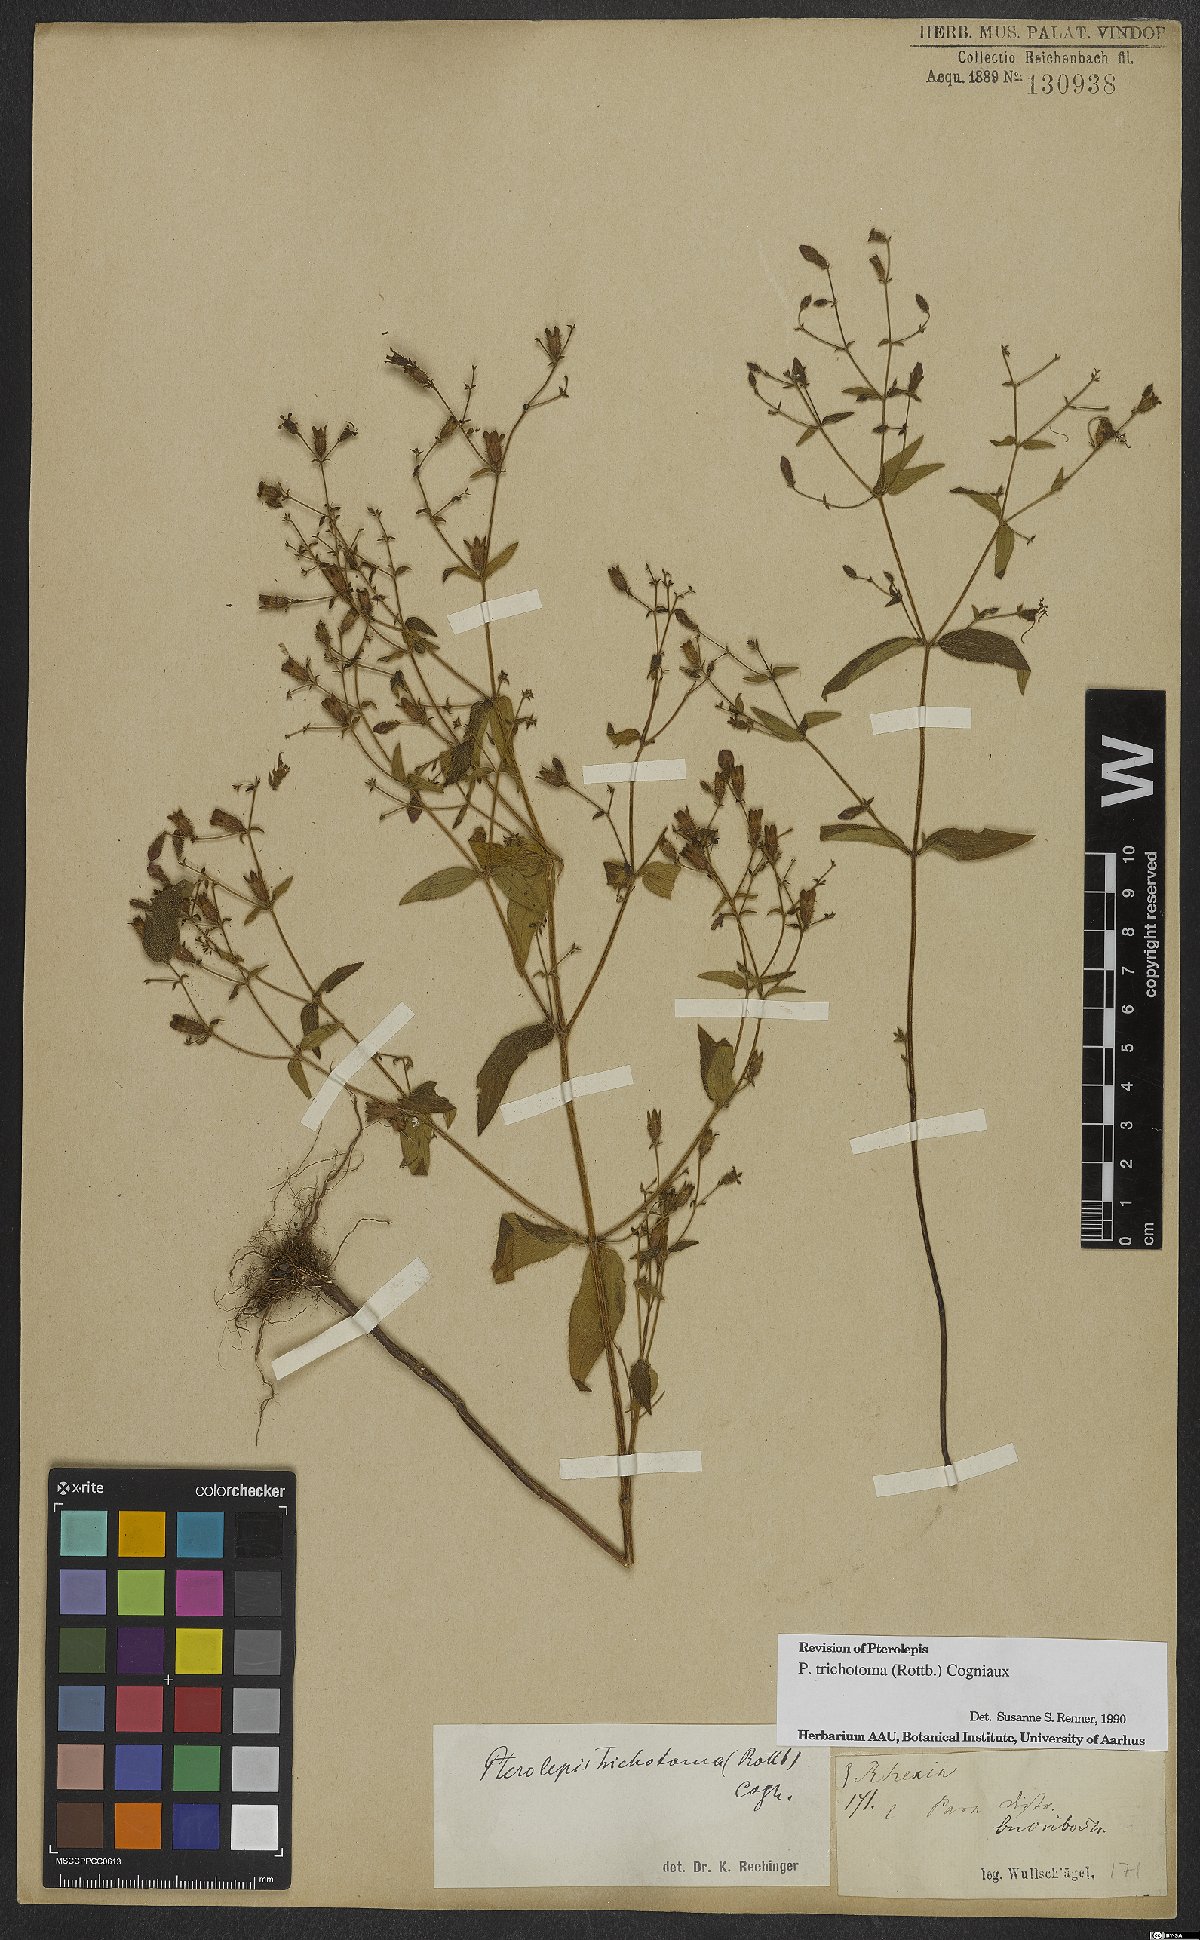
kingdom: Plantae
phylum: Tracheophyta
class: Magnoliopsida
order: Myrtales
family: Melastomataceae
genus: Pterolepis
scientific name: Pterolepis trichotoma
